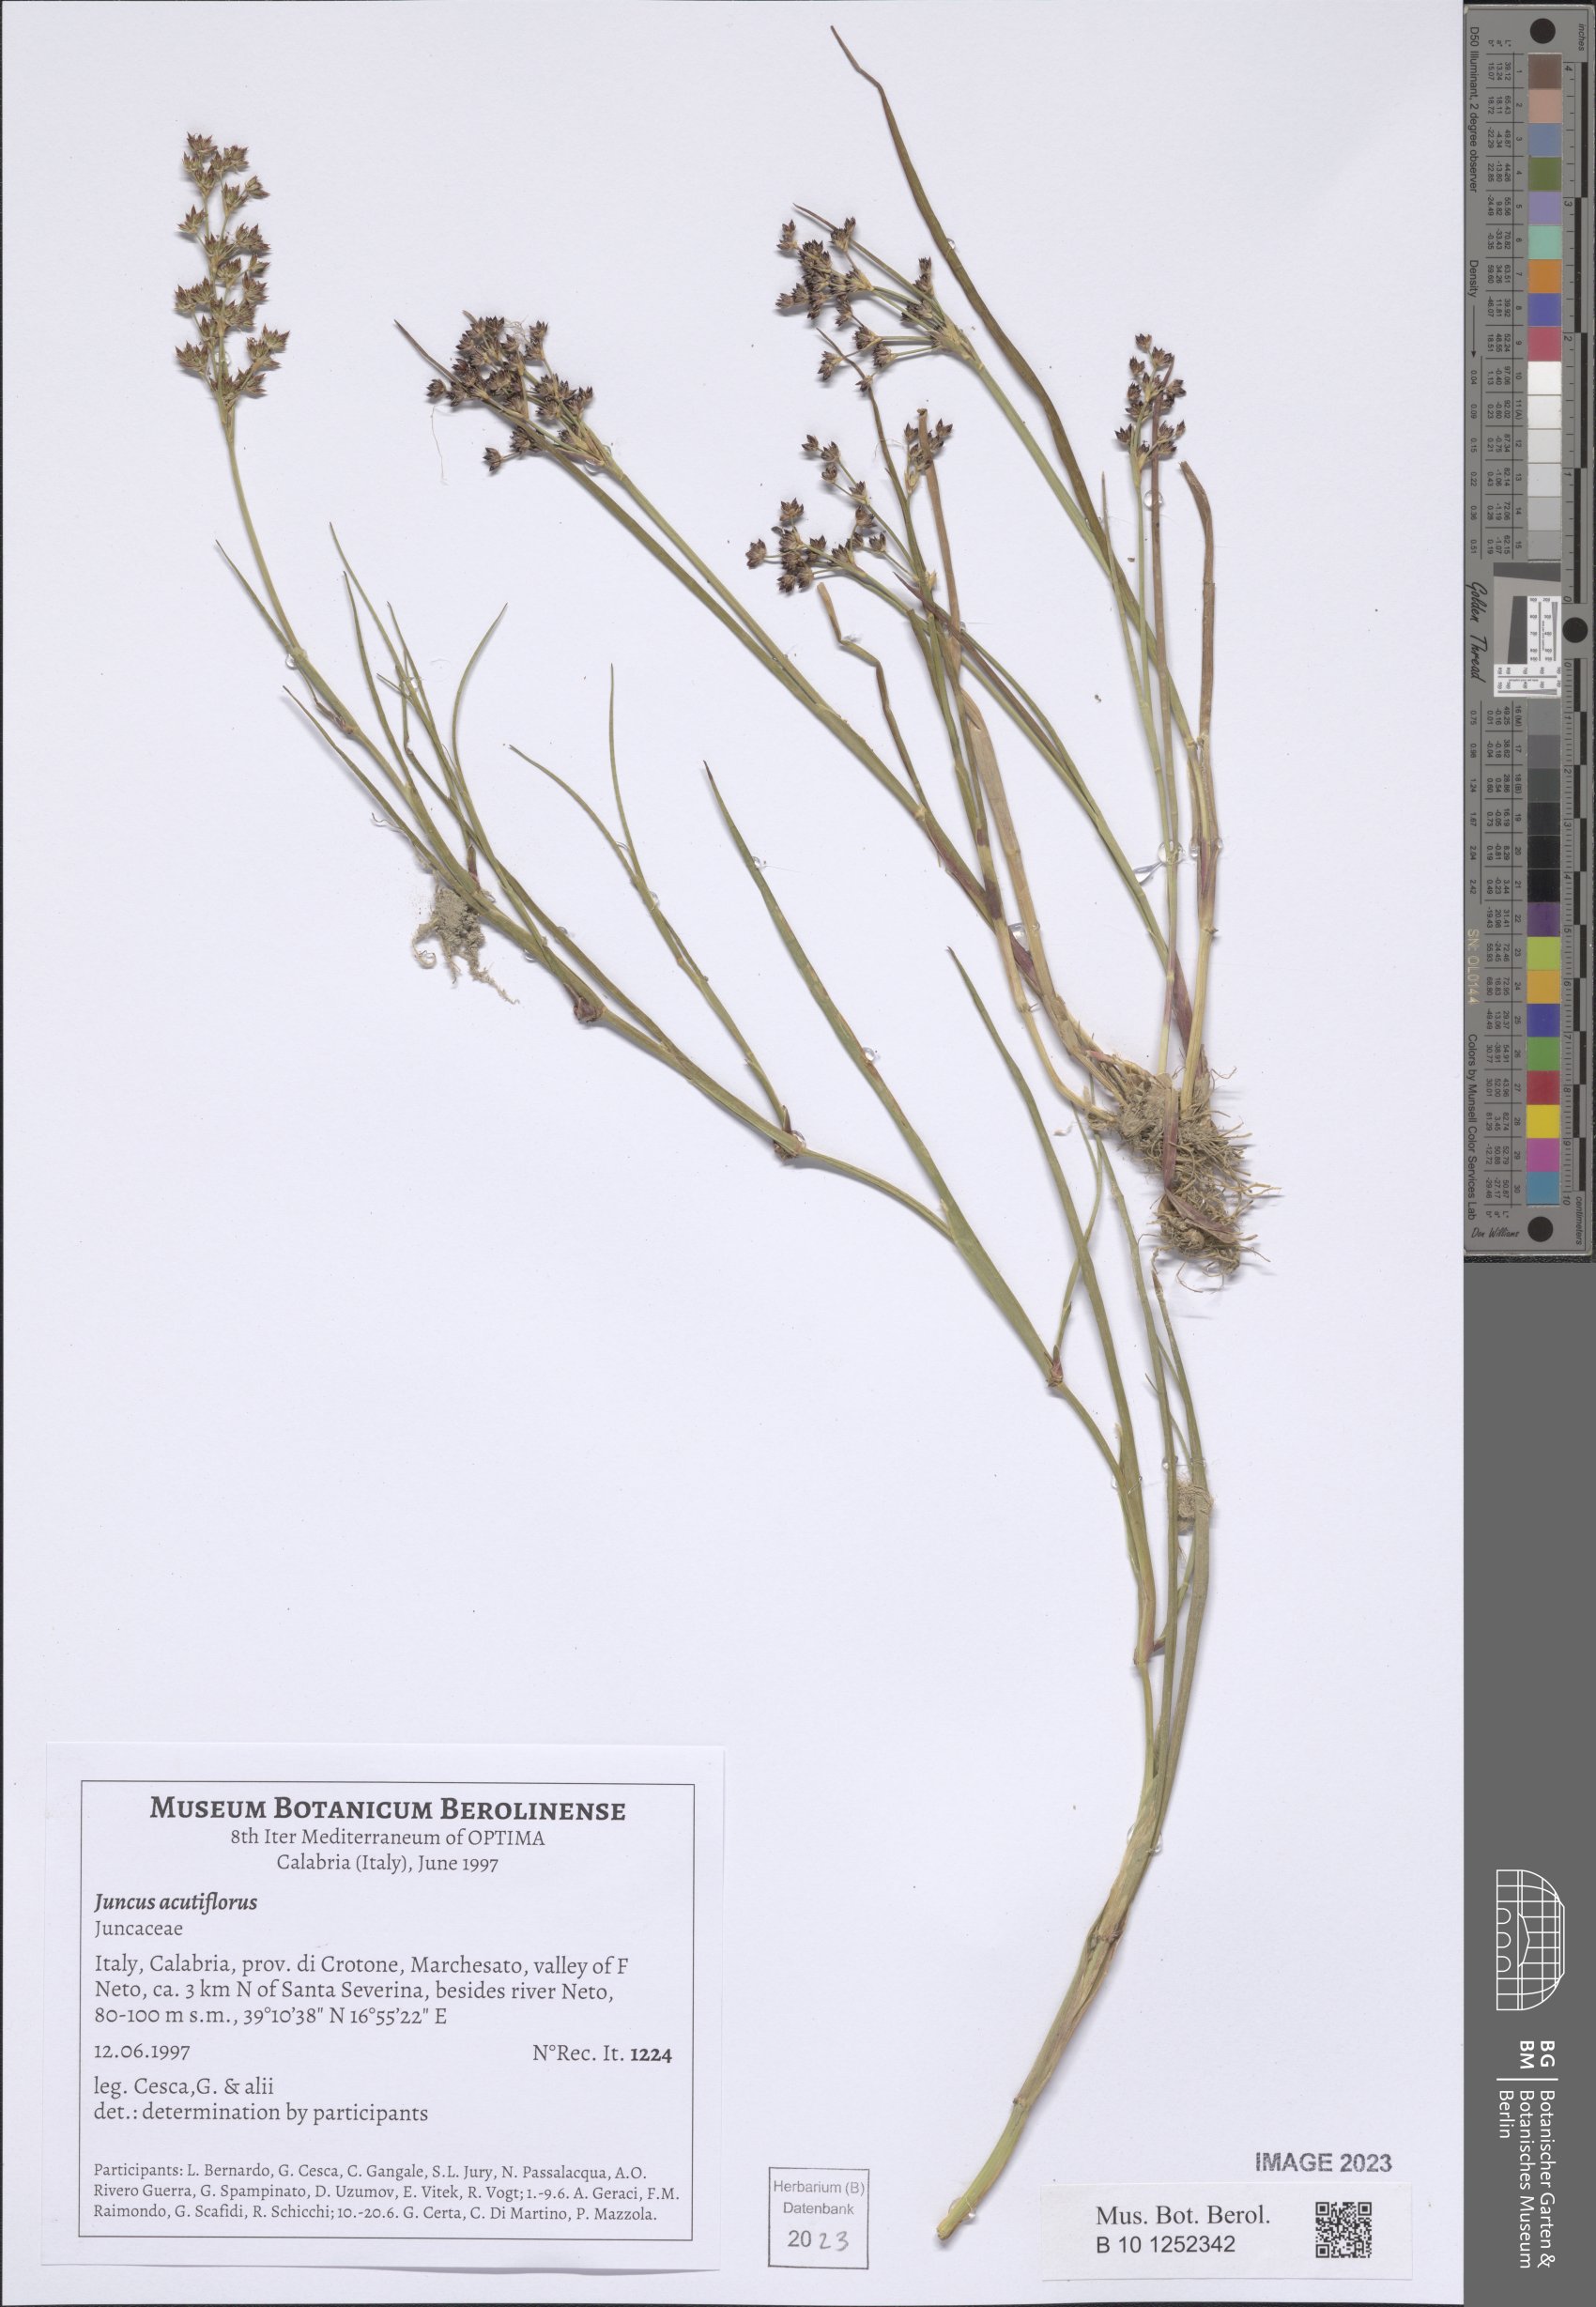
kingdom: Plantae
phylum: Tracheophyta
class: Liliopsida
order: Poales
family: Juncaceae
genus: Juncus
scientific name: Juncus acutiflorus
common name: Sharp-flowered rush
